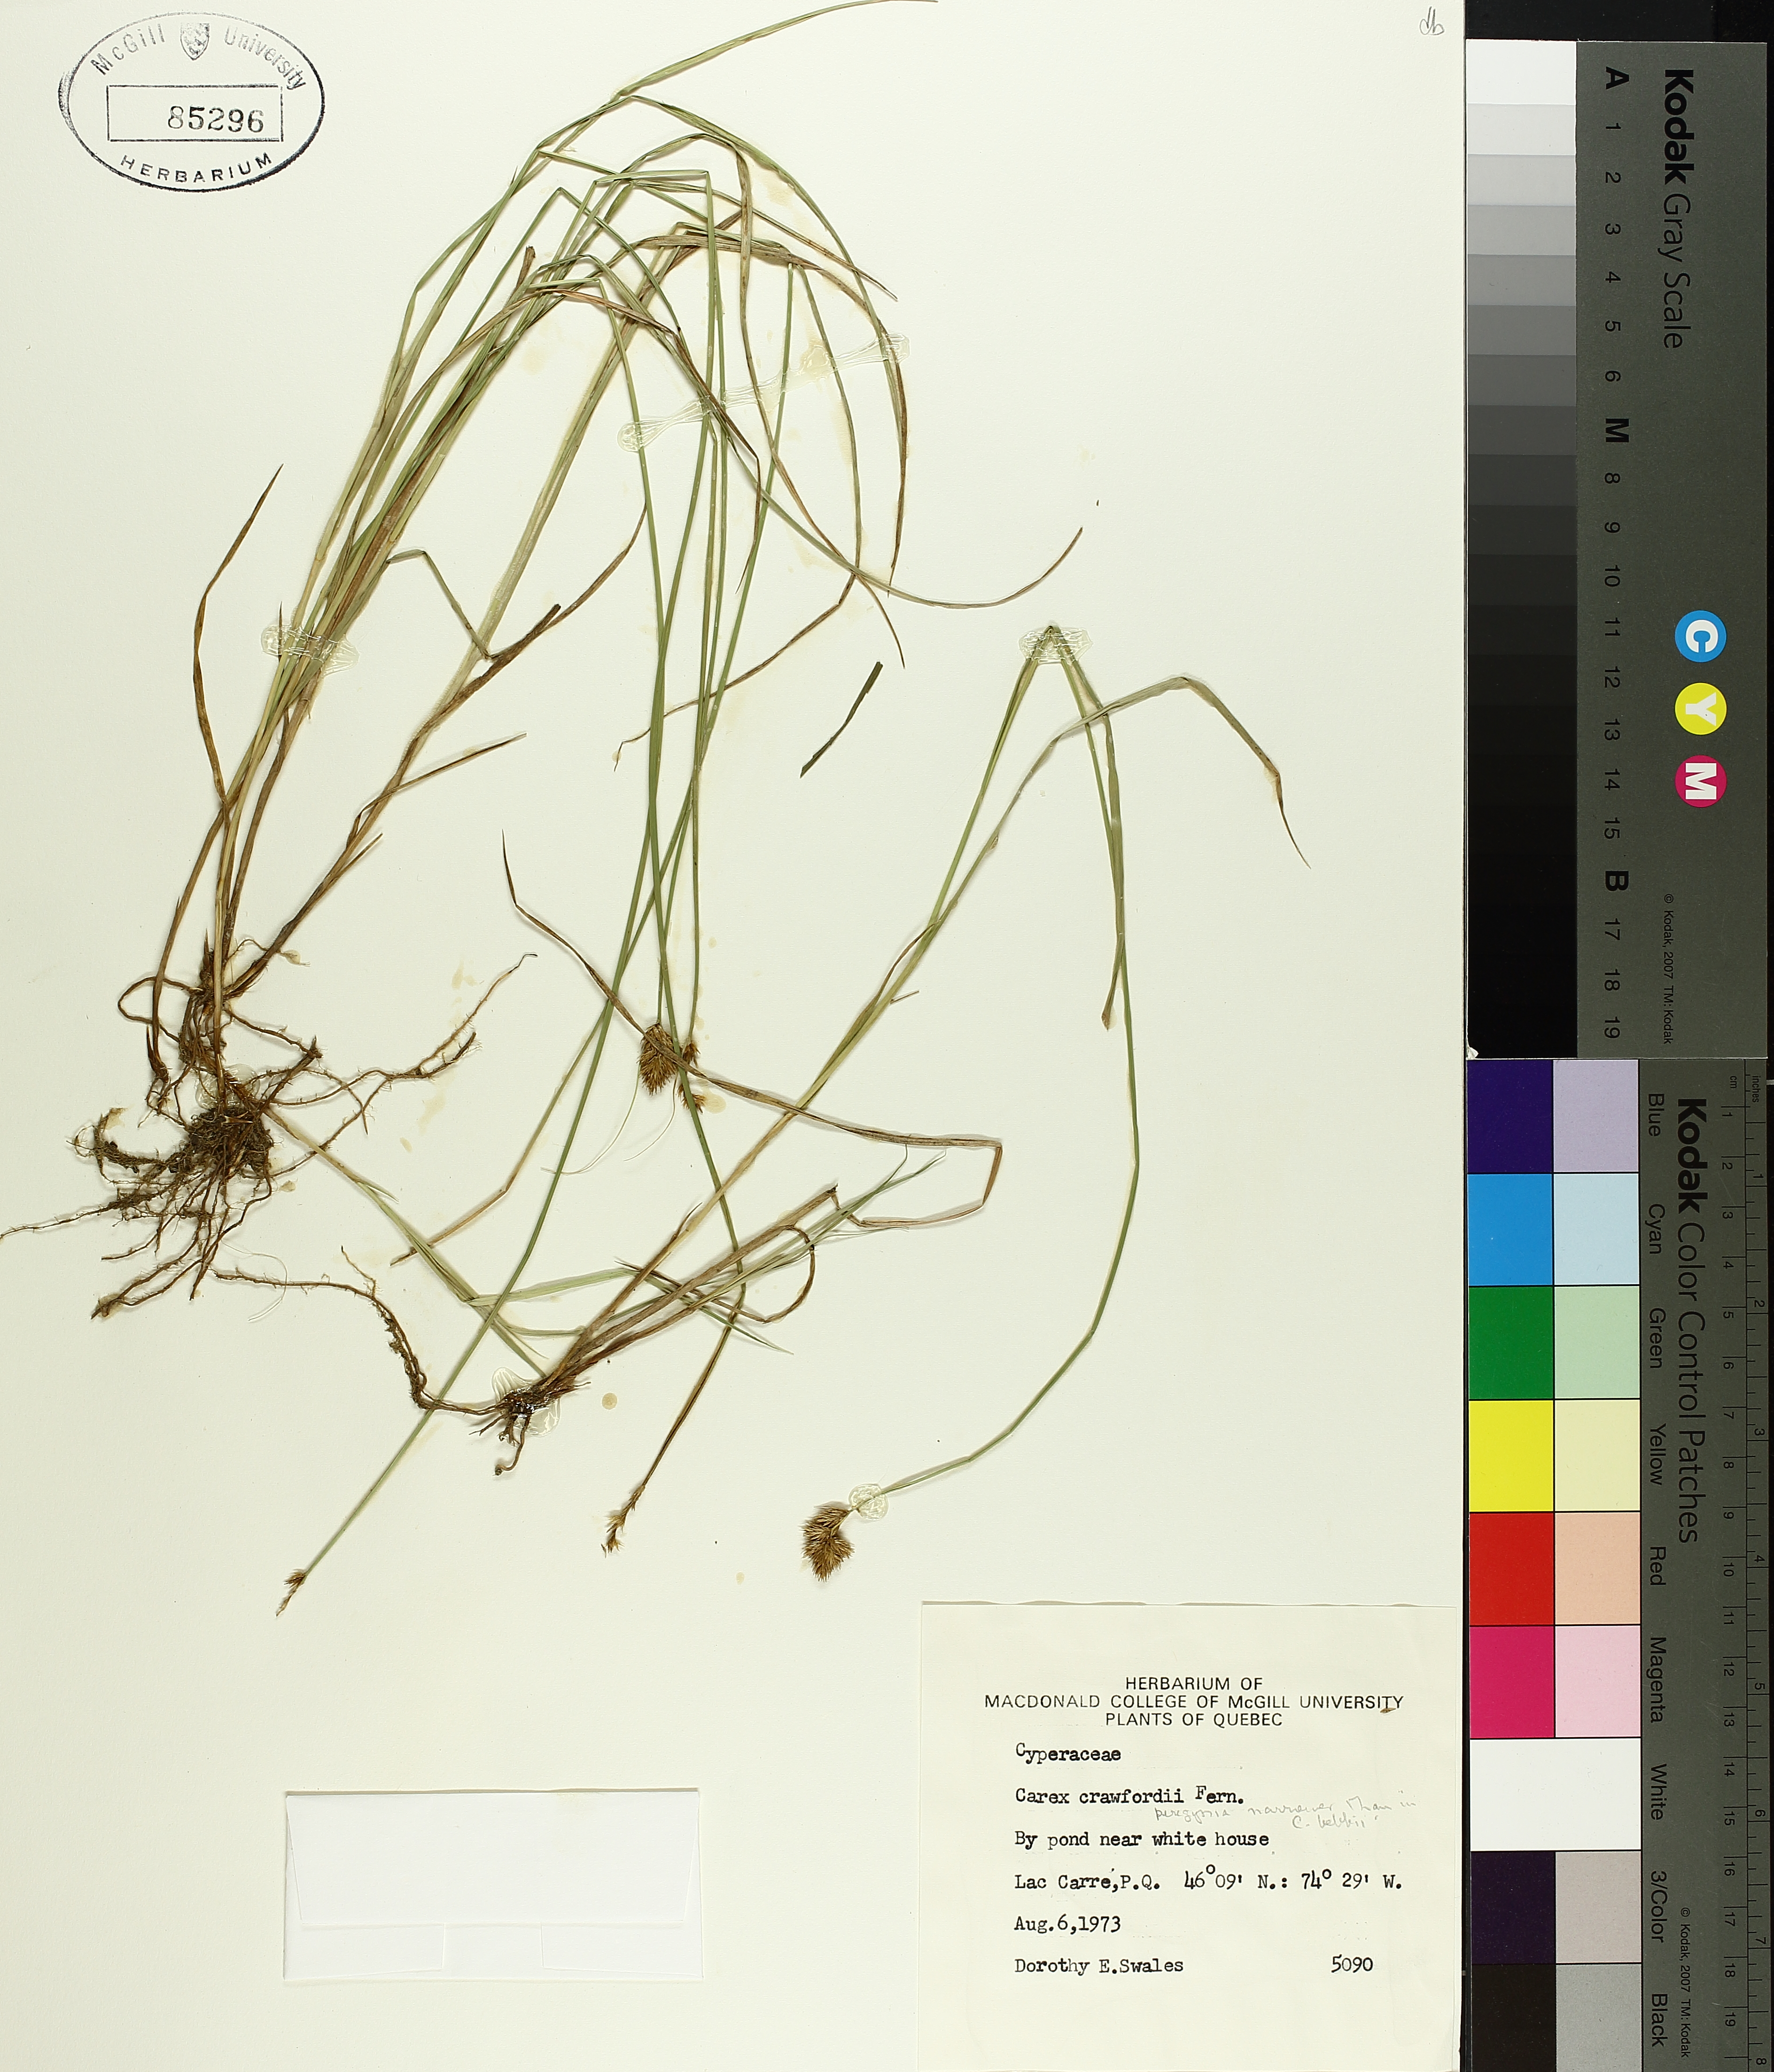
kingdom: Plantae
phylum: Tracheophyta
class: Liliopsida
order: Poales
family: Cyperaceae
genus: Carex
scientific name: Carex crawfordii
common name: Crawford's sedge
